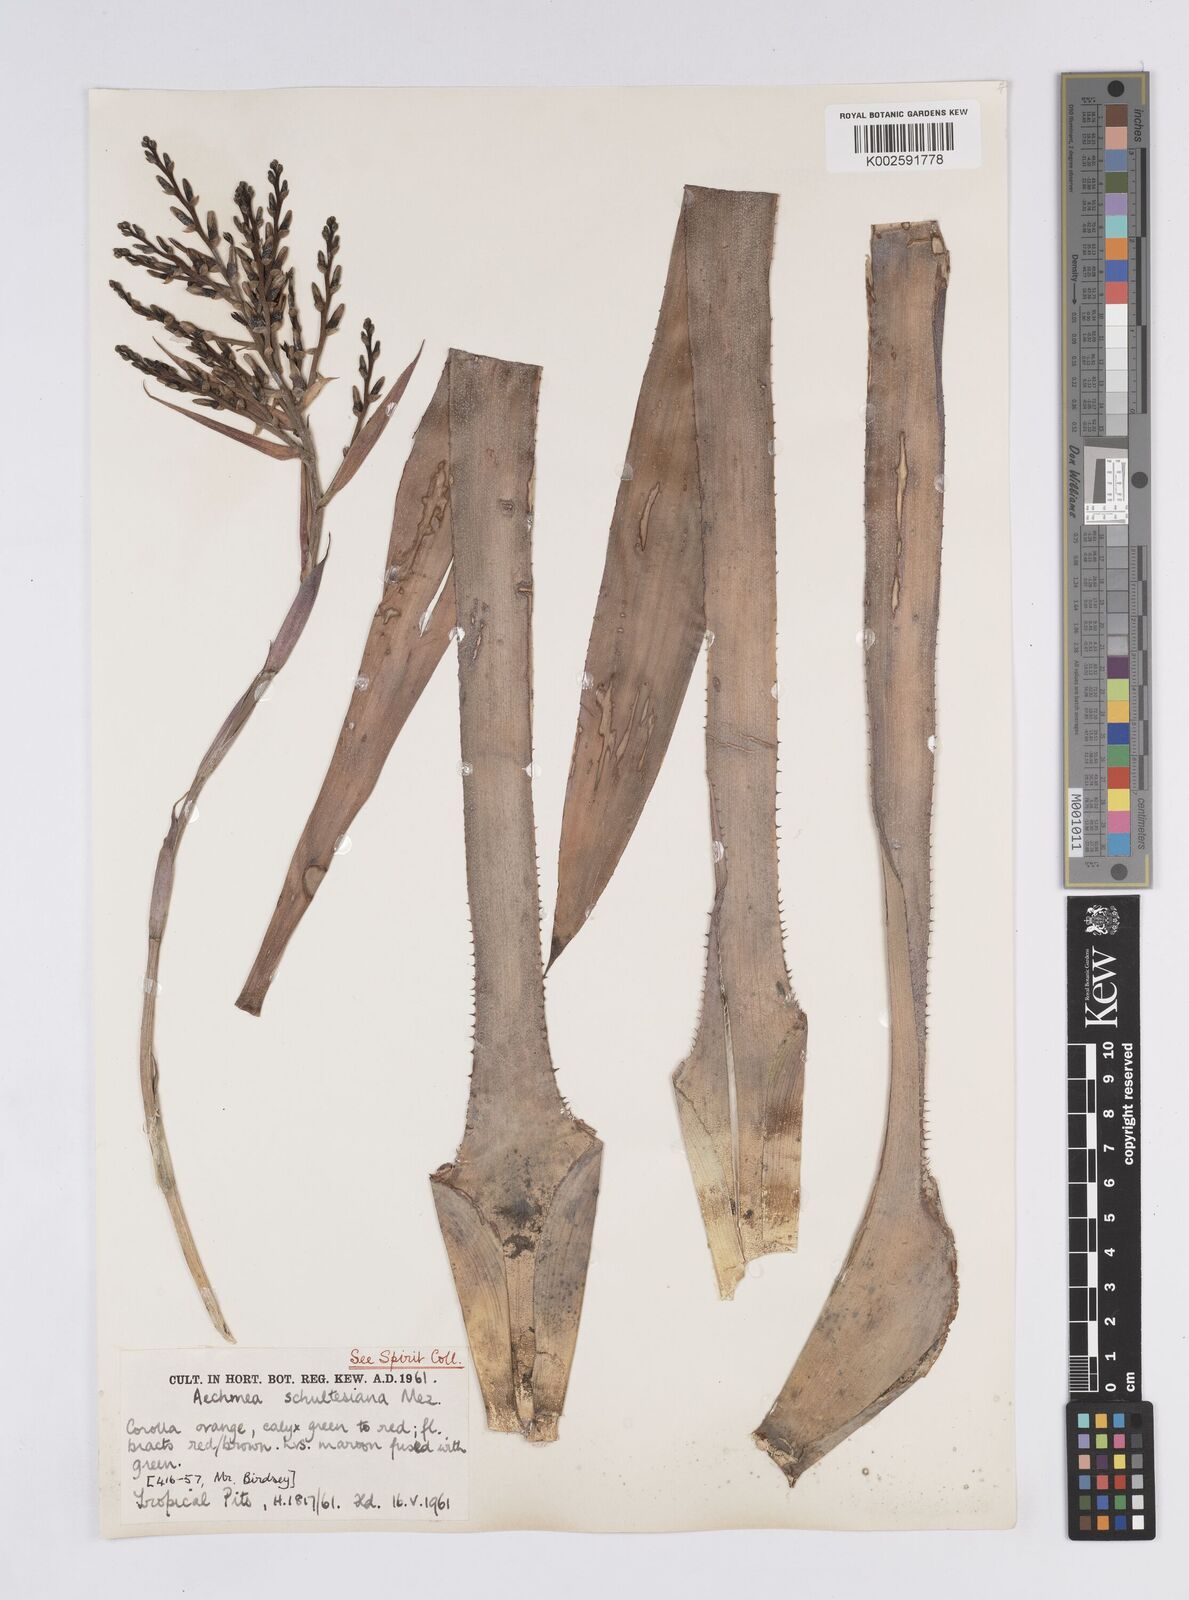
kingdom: Plantae
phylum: Tracheophyta
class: Liliopsida
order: Poales
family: Bromeliaceae
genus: Aechmea
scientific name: Aechmea
